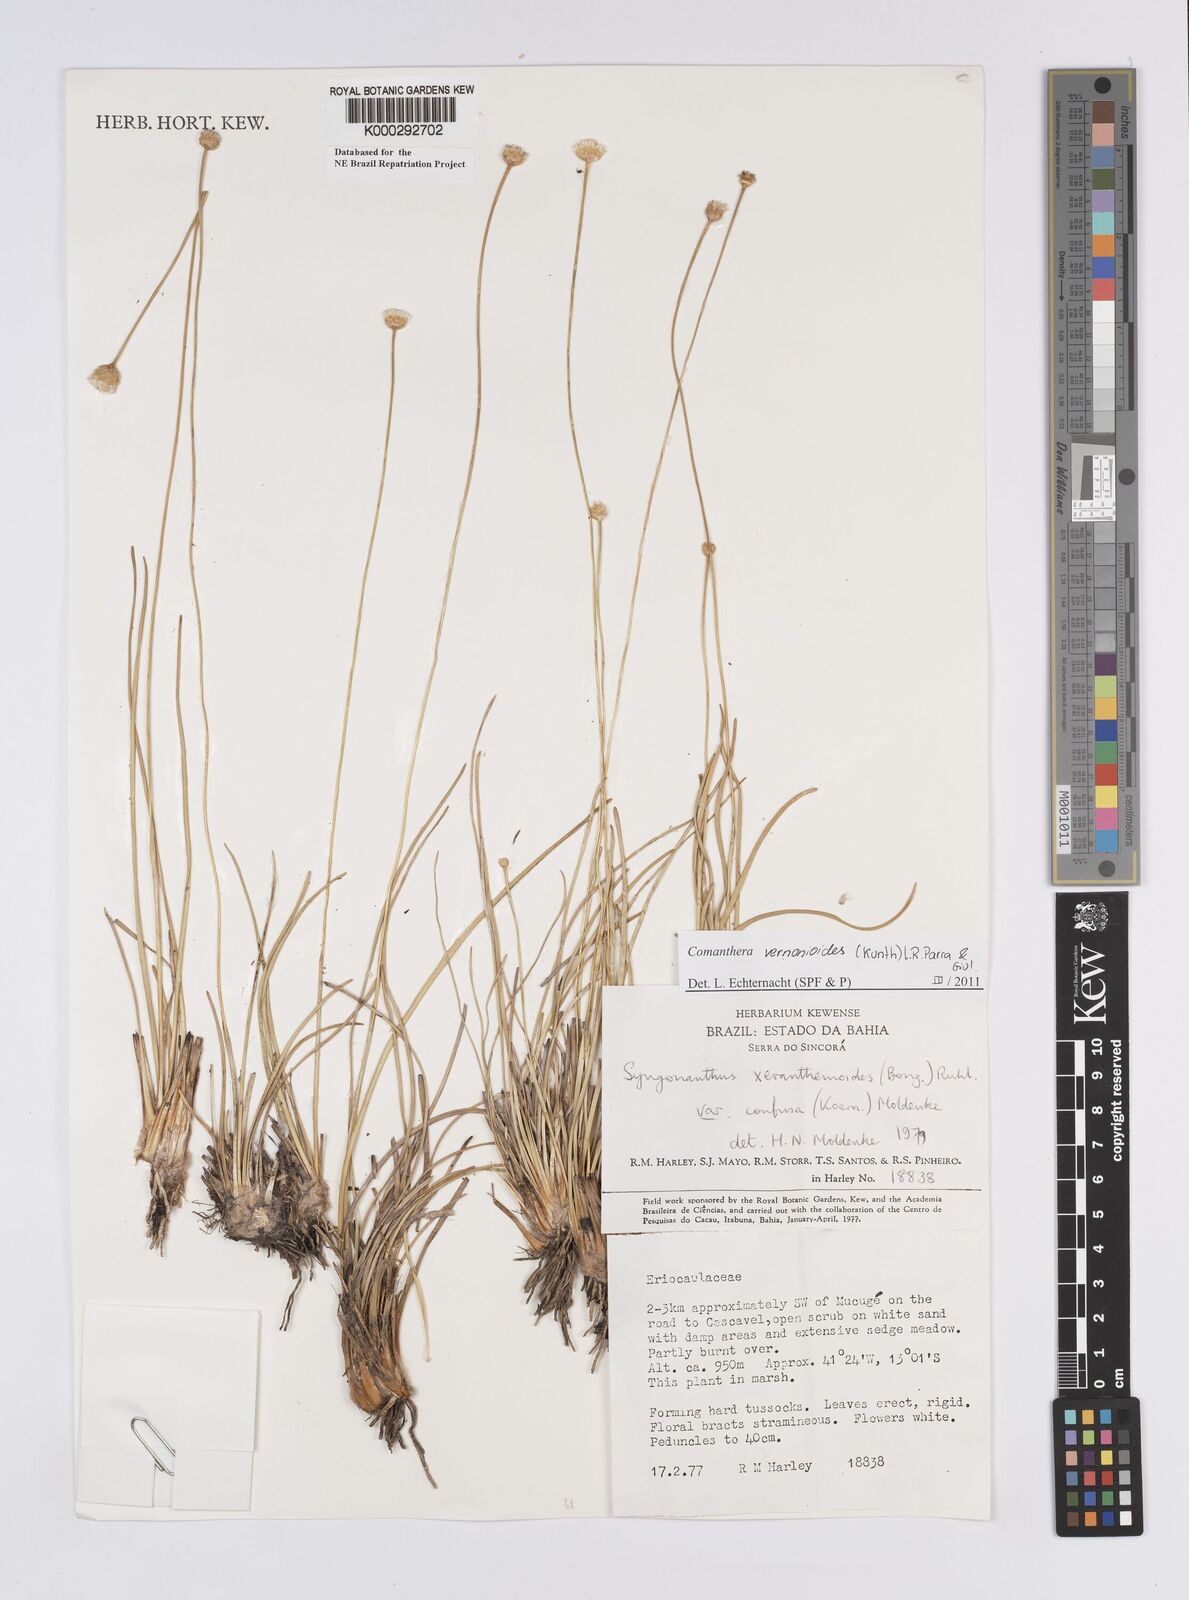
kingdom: Plantae
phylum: Tracheophyta
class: Liliopsida
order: Poales
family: Eriocaulaceae
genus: Syngonanthus
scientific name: Syngonanthus
